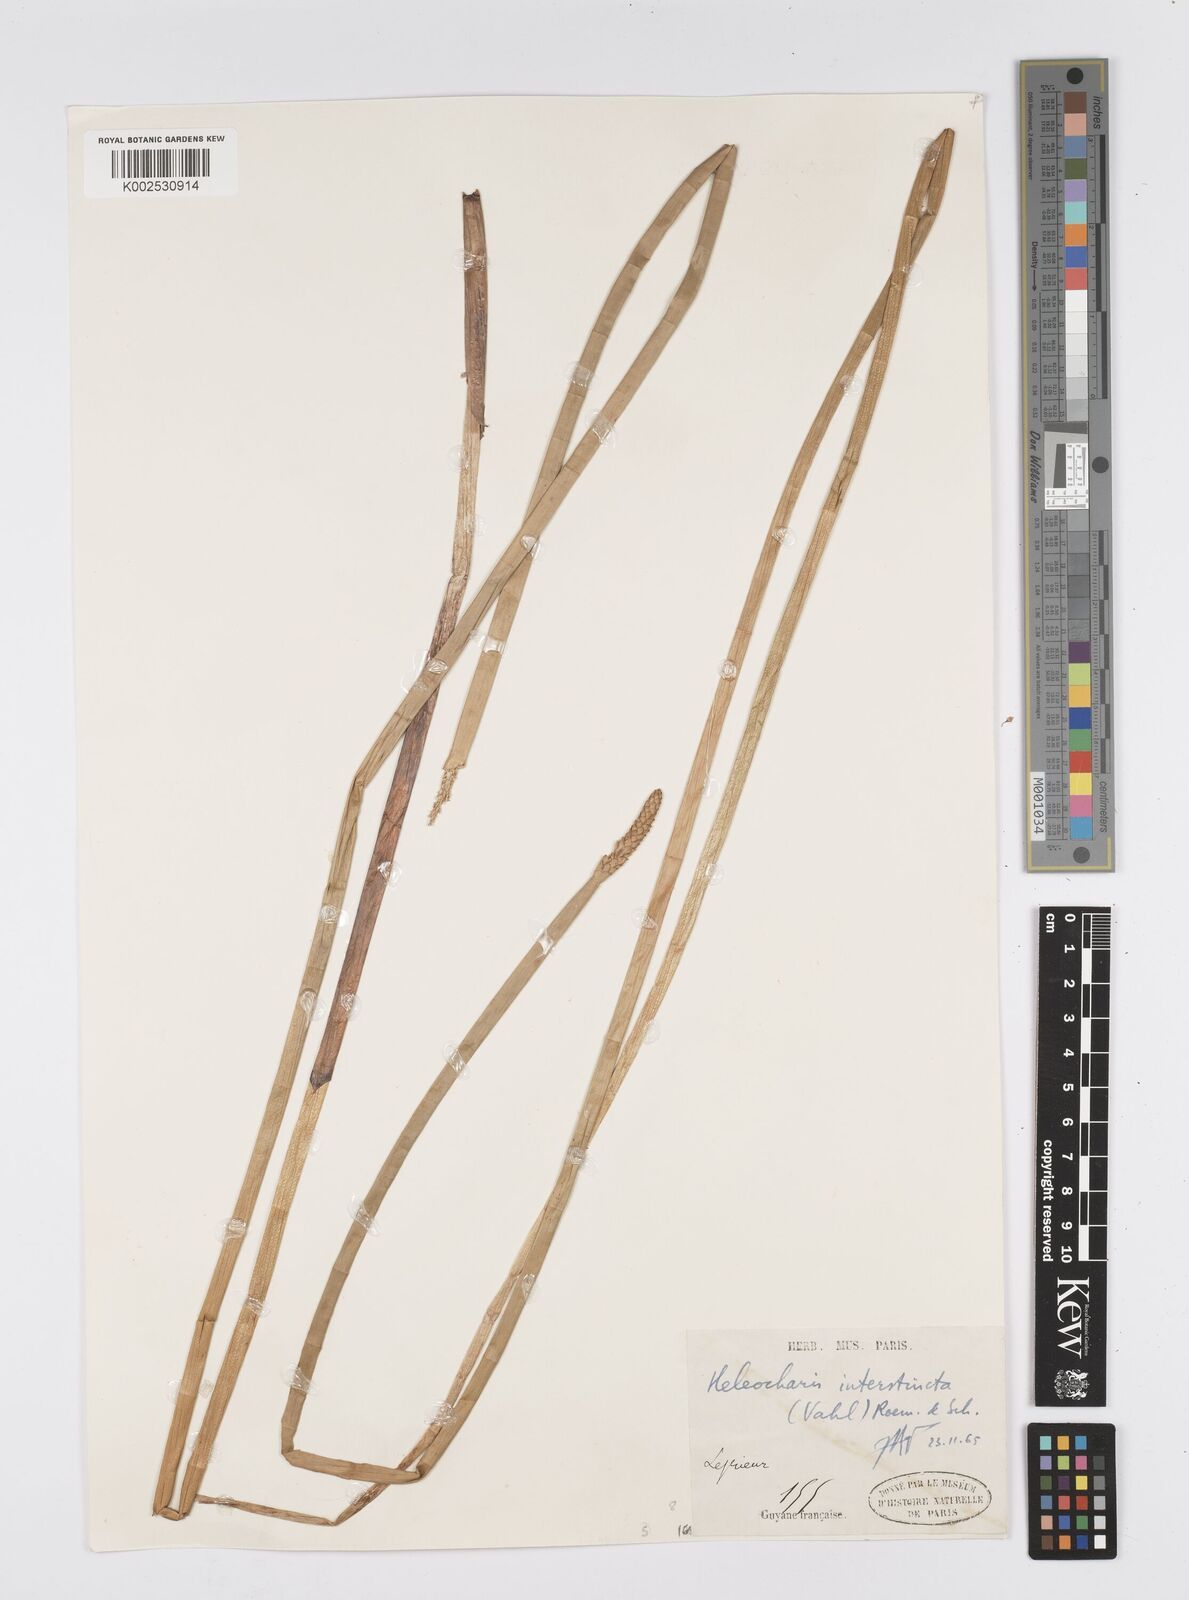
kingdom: Plantae
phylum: Tracheophyta
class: Liliopsida
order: Poales
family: Cyperaceae
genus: Eleocharis
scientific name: Eleocharis interstincta
